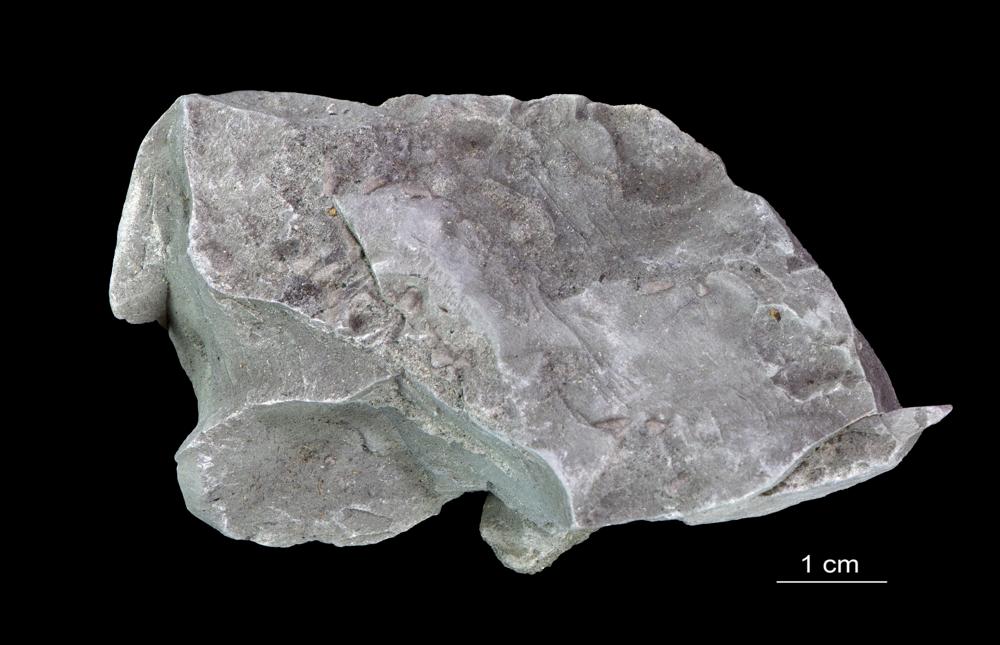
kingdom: Animalia
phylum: Annelida
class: Polychaeta
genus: Volborthella
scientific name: Volborthella tenuis
